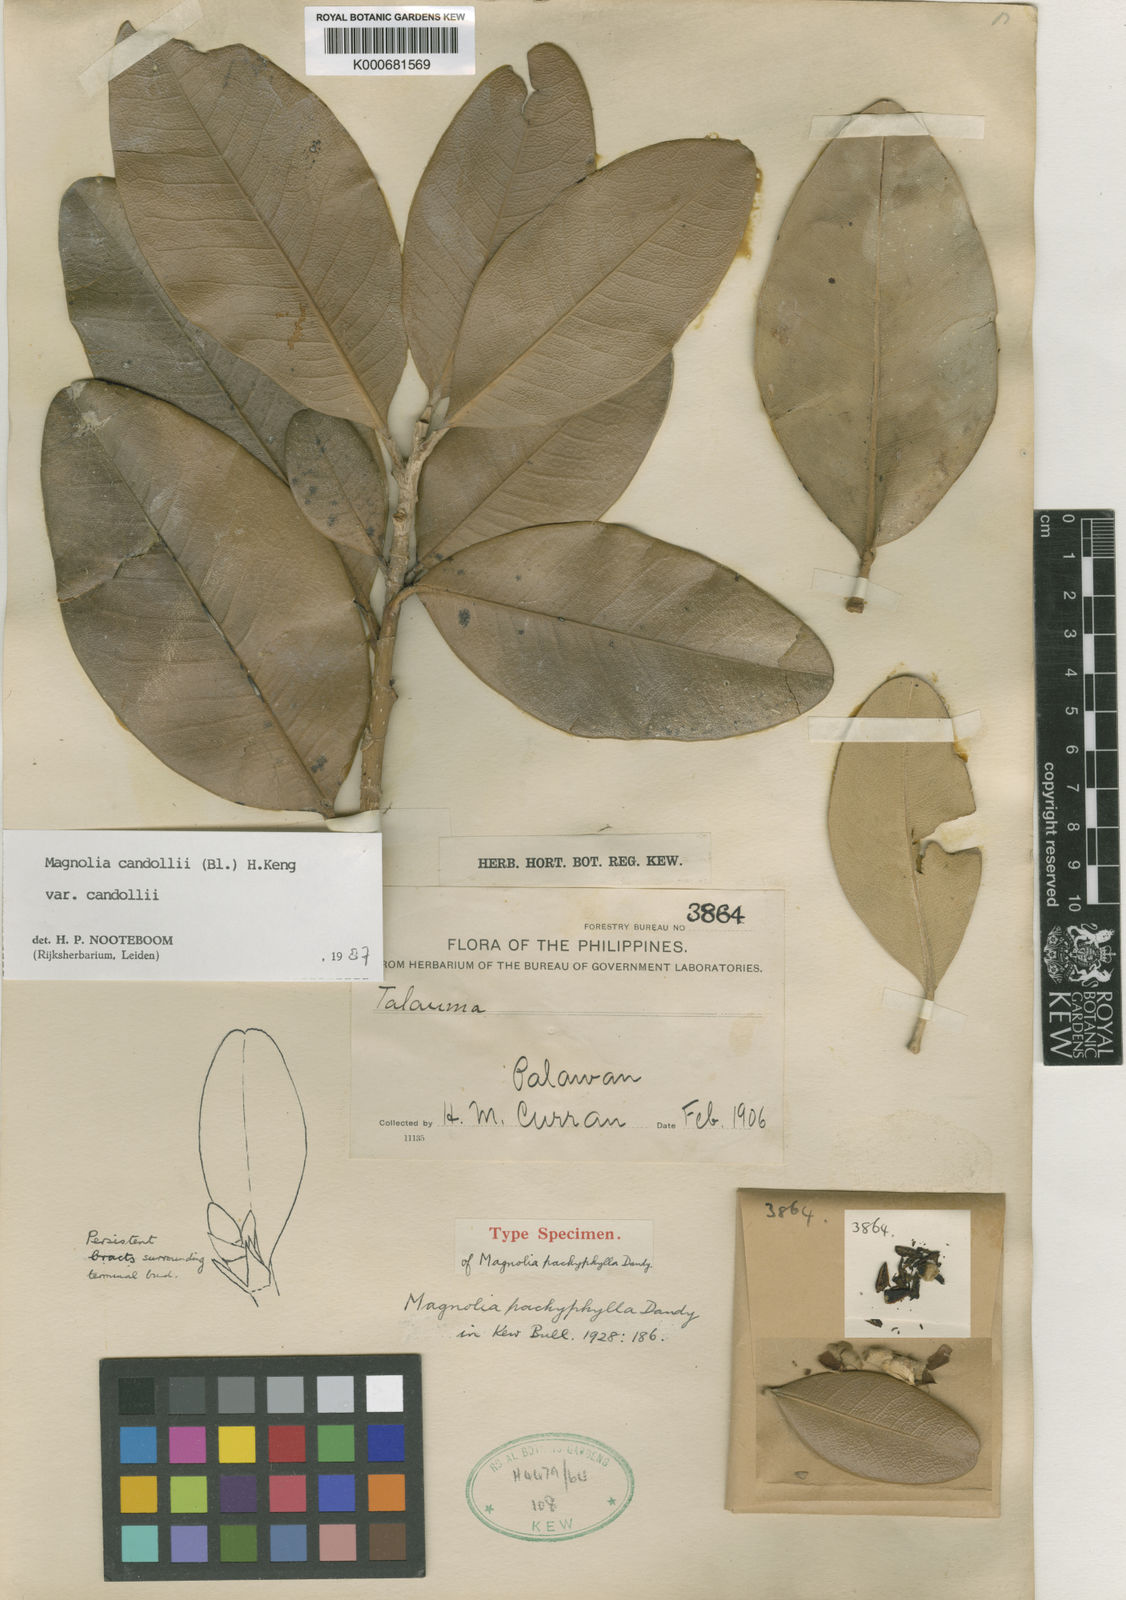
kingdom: Plantae
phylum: Tracheophyta
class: Magnoliopsida
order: Magnoliales
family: Magnoliaceae
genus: Magnolia
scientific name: Magnolia liliifera
